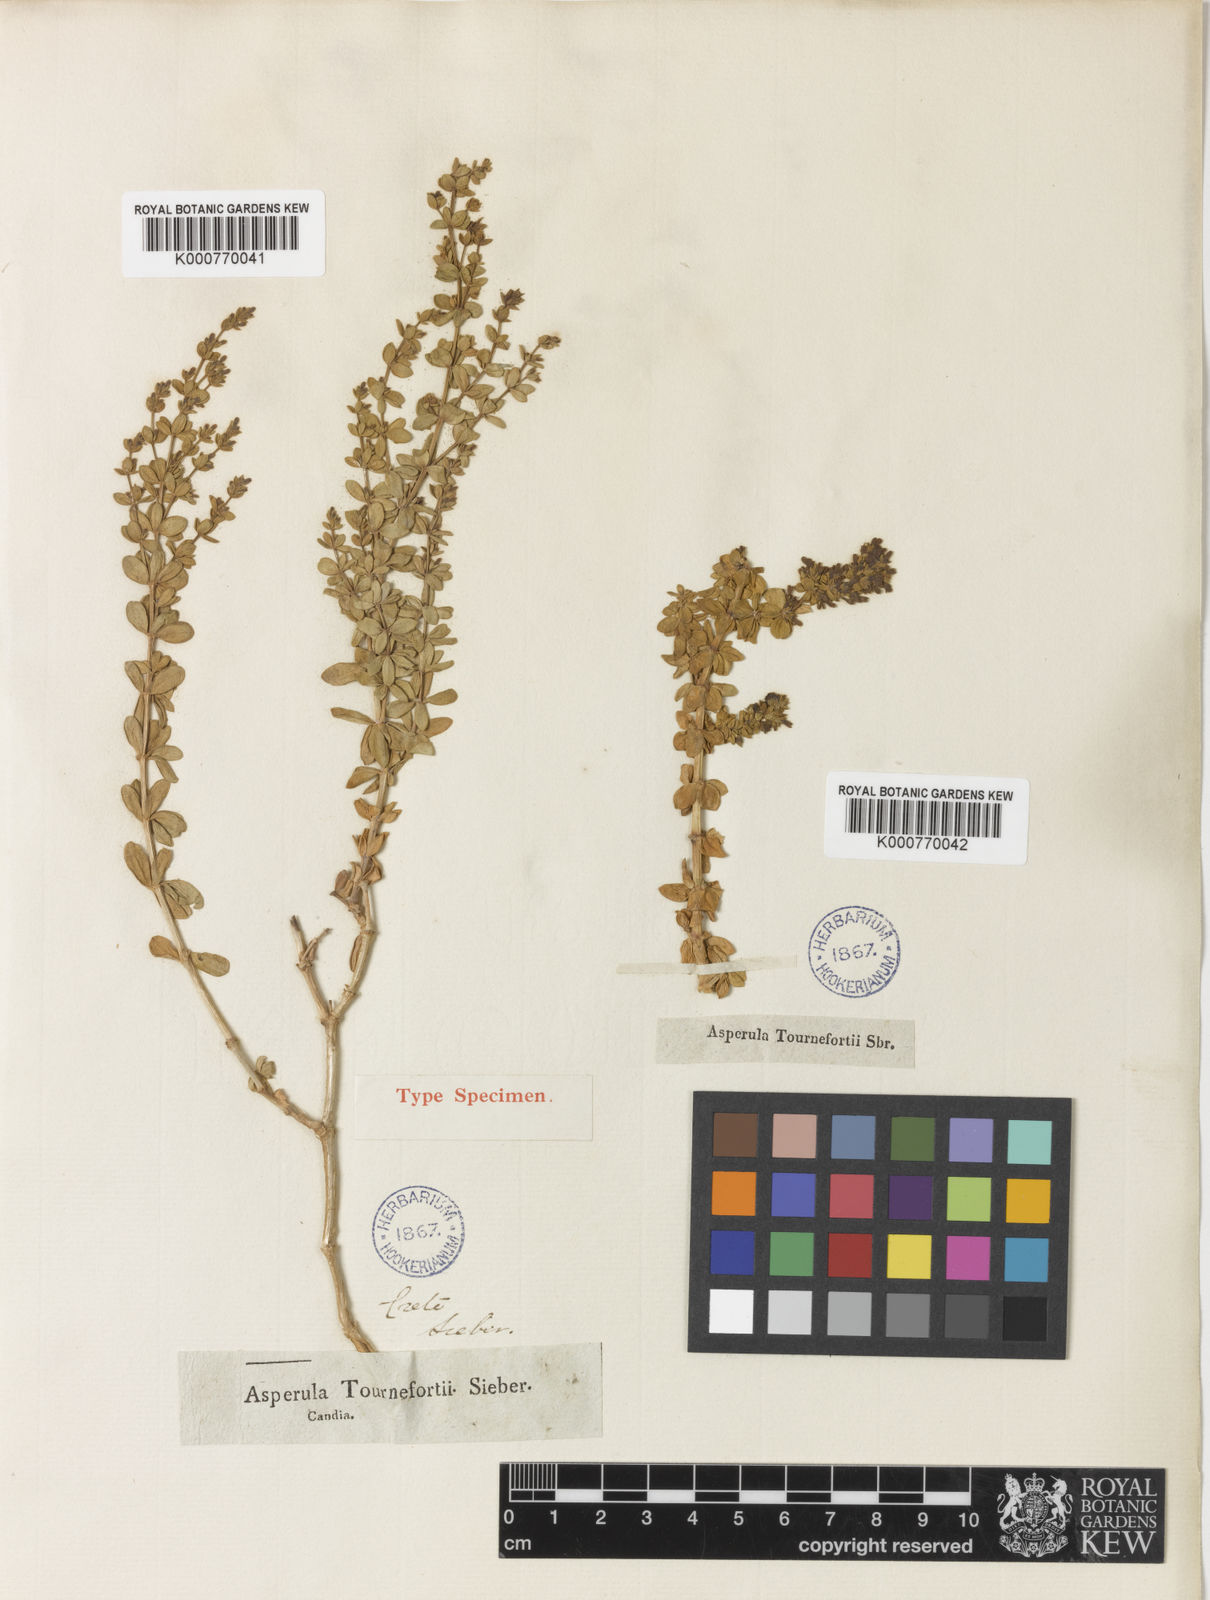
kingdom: Plantae
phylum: Tracheophyta
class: Magnoliopsida
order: Gentianales
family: Rubiaceae
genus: Asperula
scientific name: Asperula tournefortii
